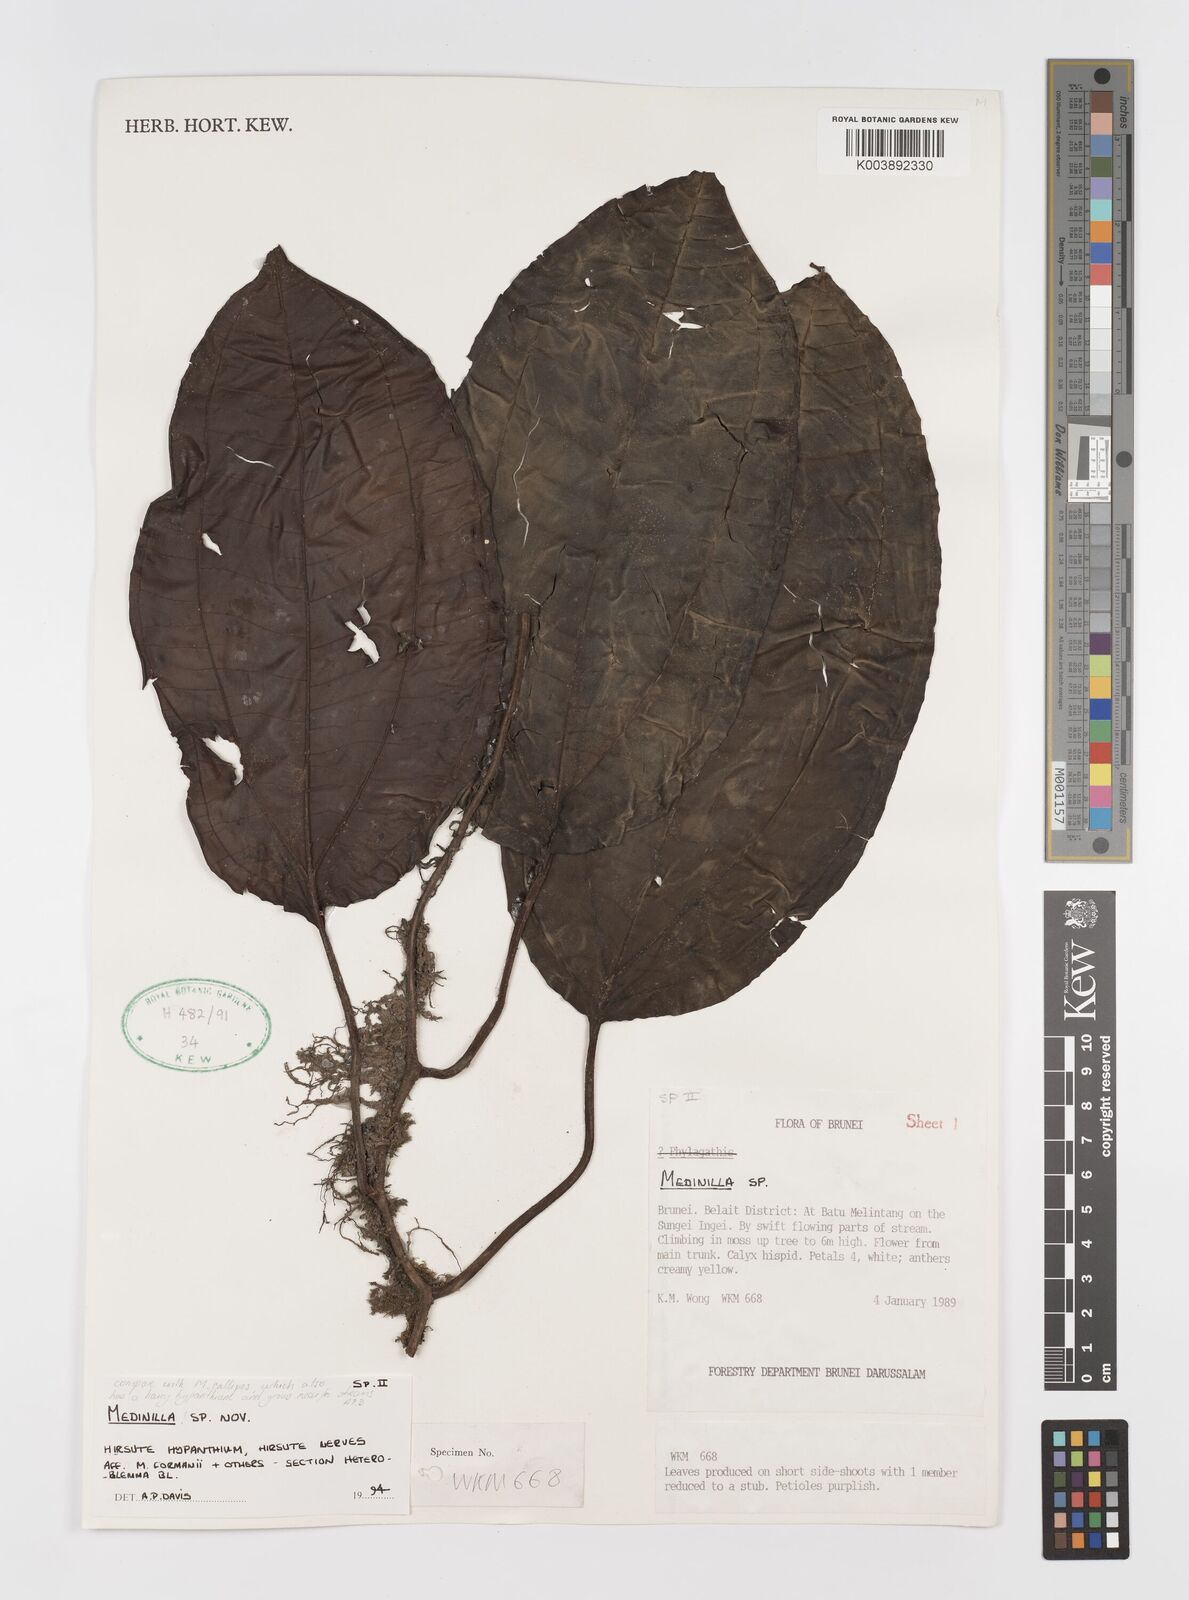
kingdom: Plantae
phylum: Tracheophyta
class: Magnoliopsida
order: Myrtales
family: Melastomataceae
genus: Heteroblemma
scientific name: Heteroblemma serpens
